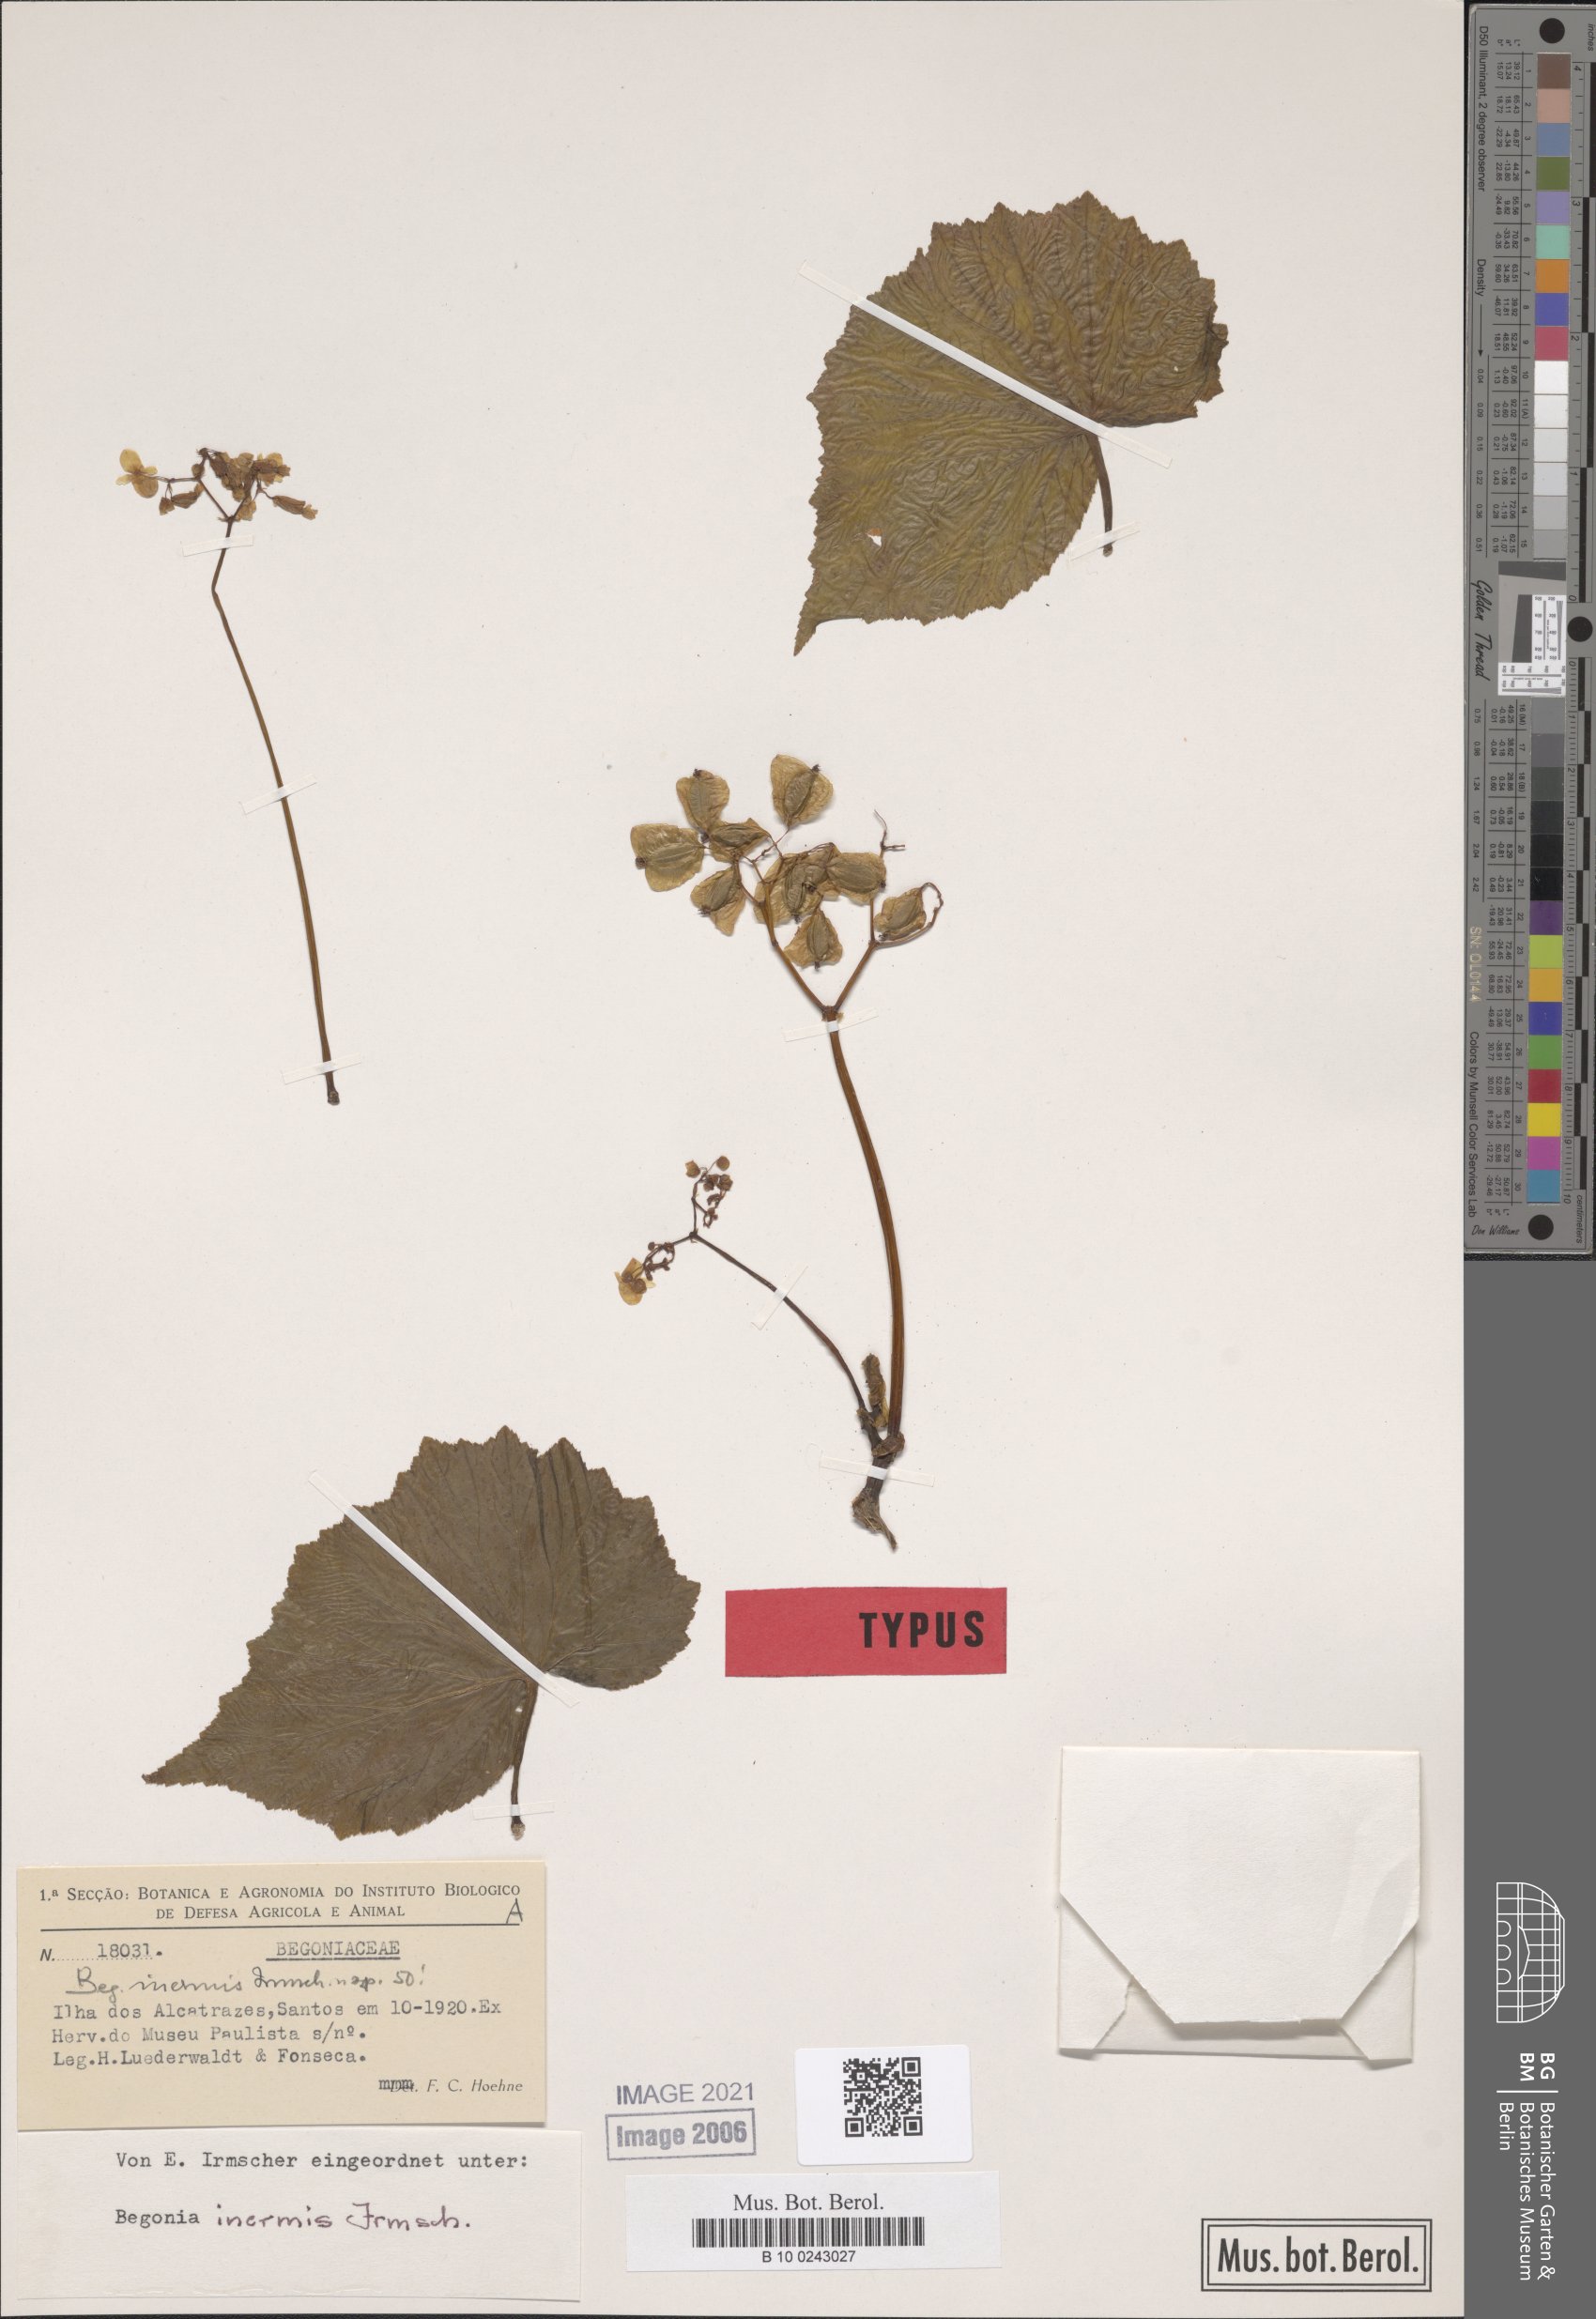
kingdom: Plantae
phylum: Tracheophyta
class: Magnoliopsida
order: Cucurbitales
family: Begoniaceae
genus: Begonia
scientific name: Begonia reniformis
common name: Grapeleaf begonia
